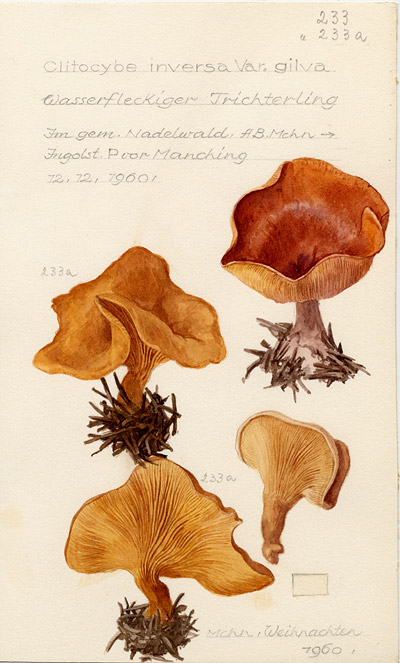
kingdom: Fungi
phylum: Basidiomycota
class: Agaricomycetes
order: Agaricales
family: Tricholomataceae
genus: Paralepista
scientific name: Paralepista flaccida
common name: Tawny funnel cap
